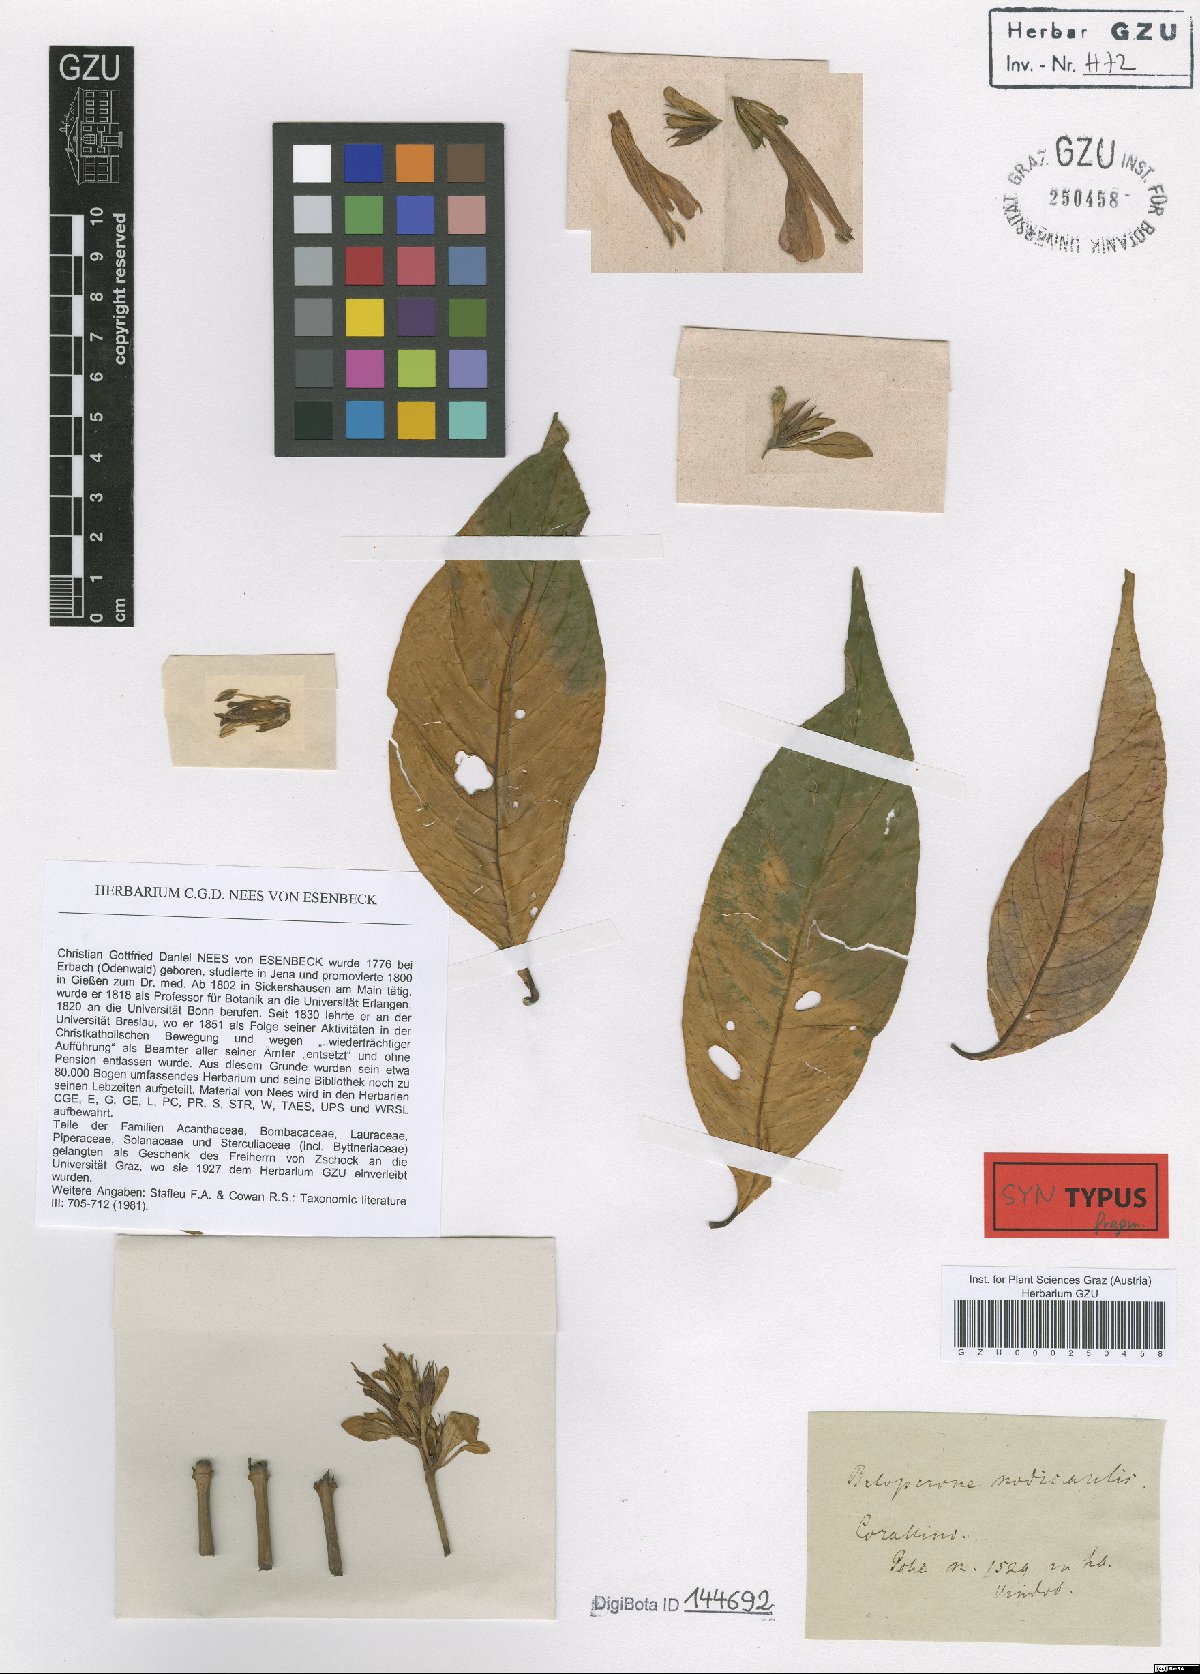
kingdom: Plantae
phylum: Tracheophyta
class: Magnoliopsida
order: Lamiales
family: Acanthaceae
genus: Justicia
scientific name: Justicia nodicaulis
